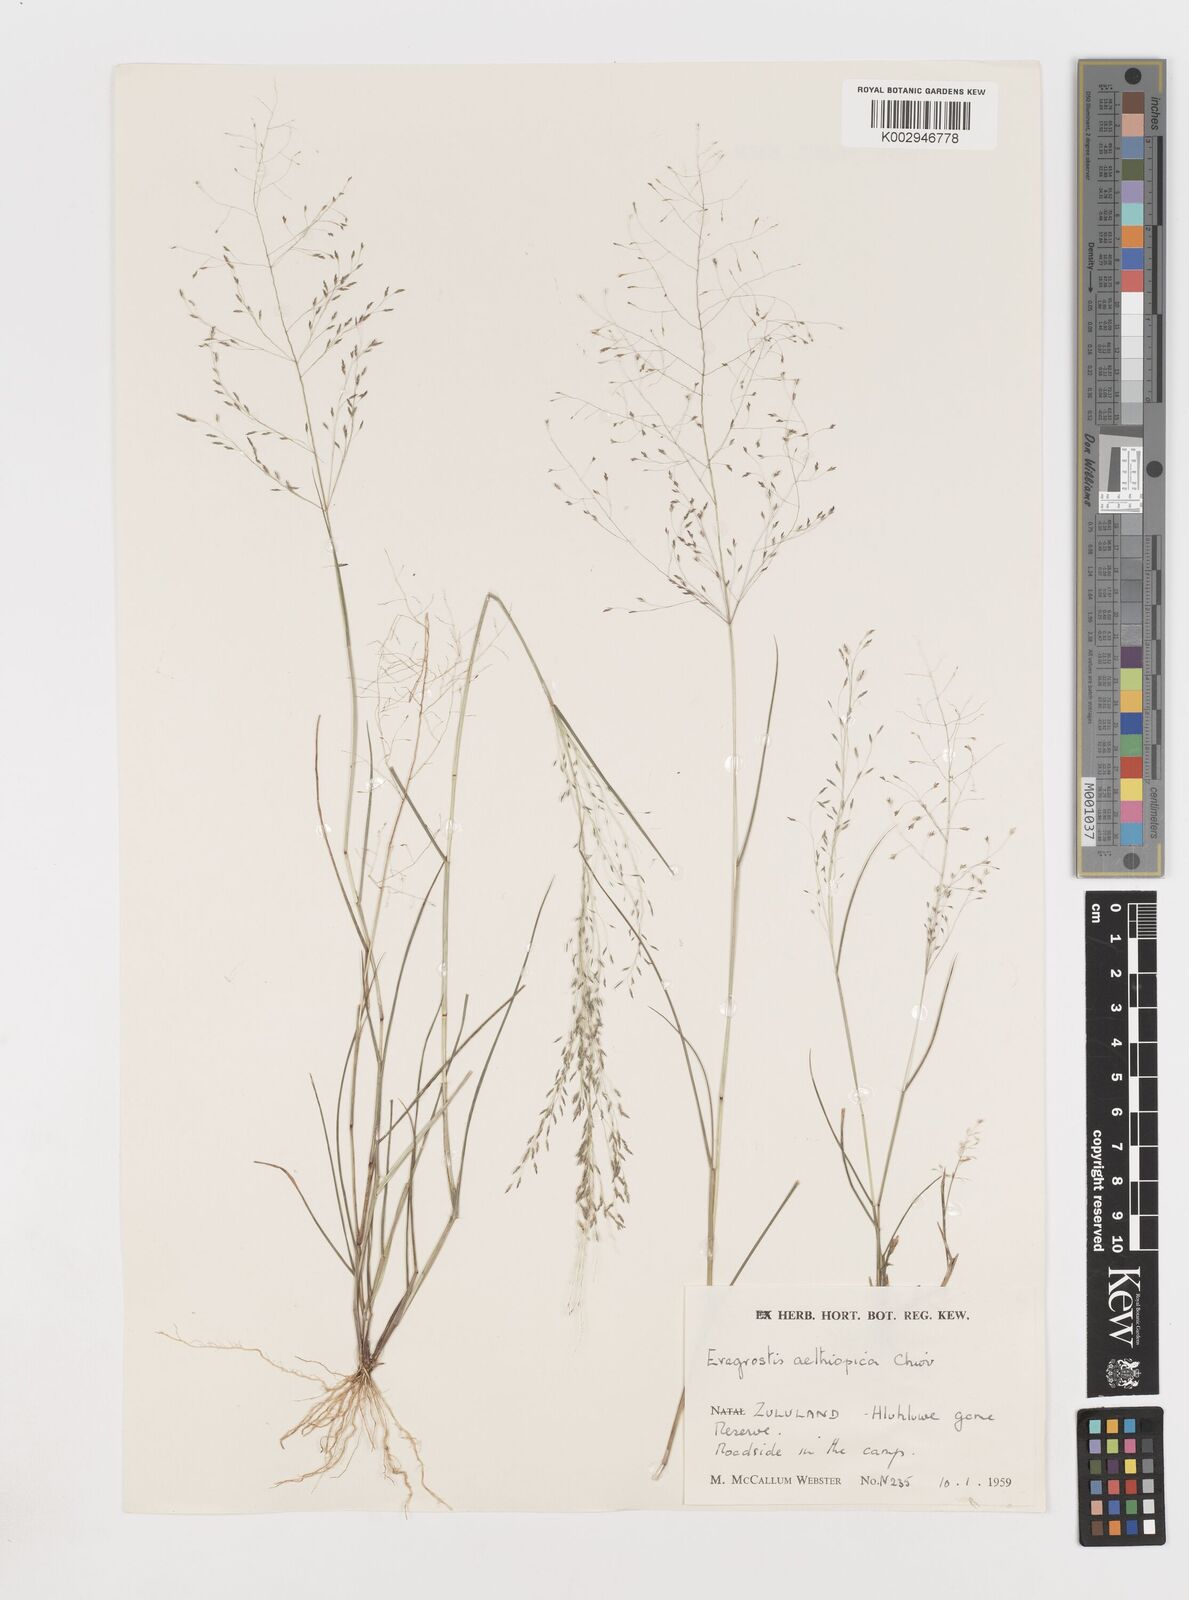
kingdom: Plantae
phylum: Tracheophyta
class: Liliopsida
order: Poales
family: Poaceae
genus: Eragrostis
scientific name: Eragrostis aethiopica
